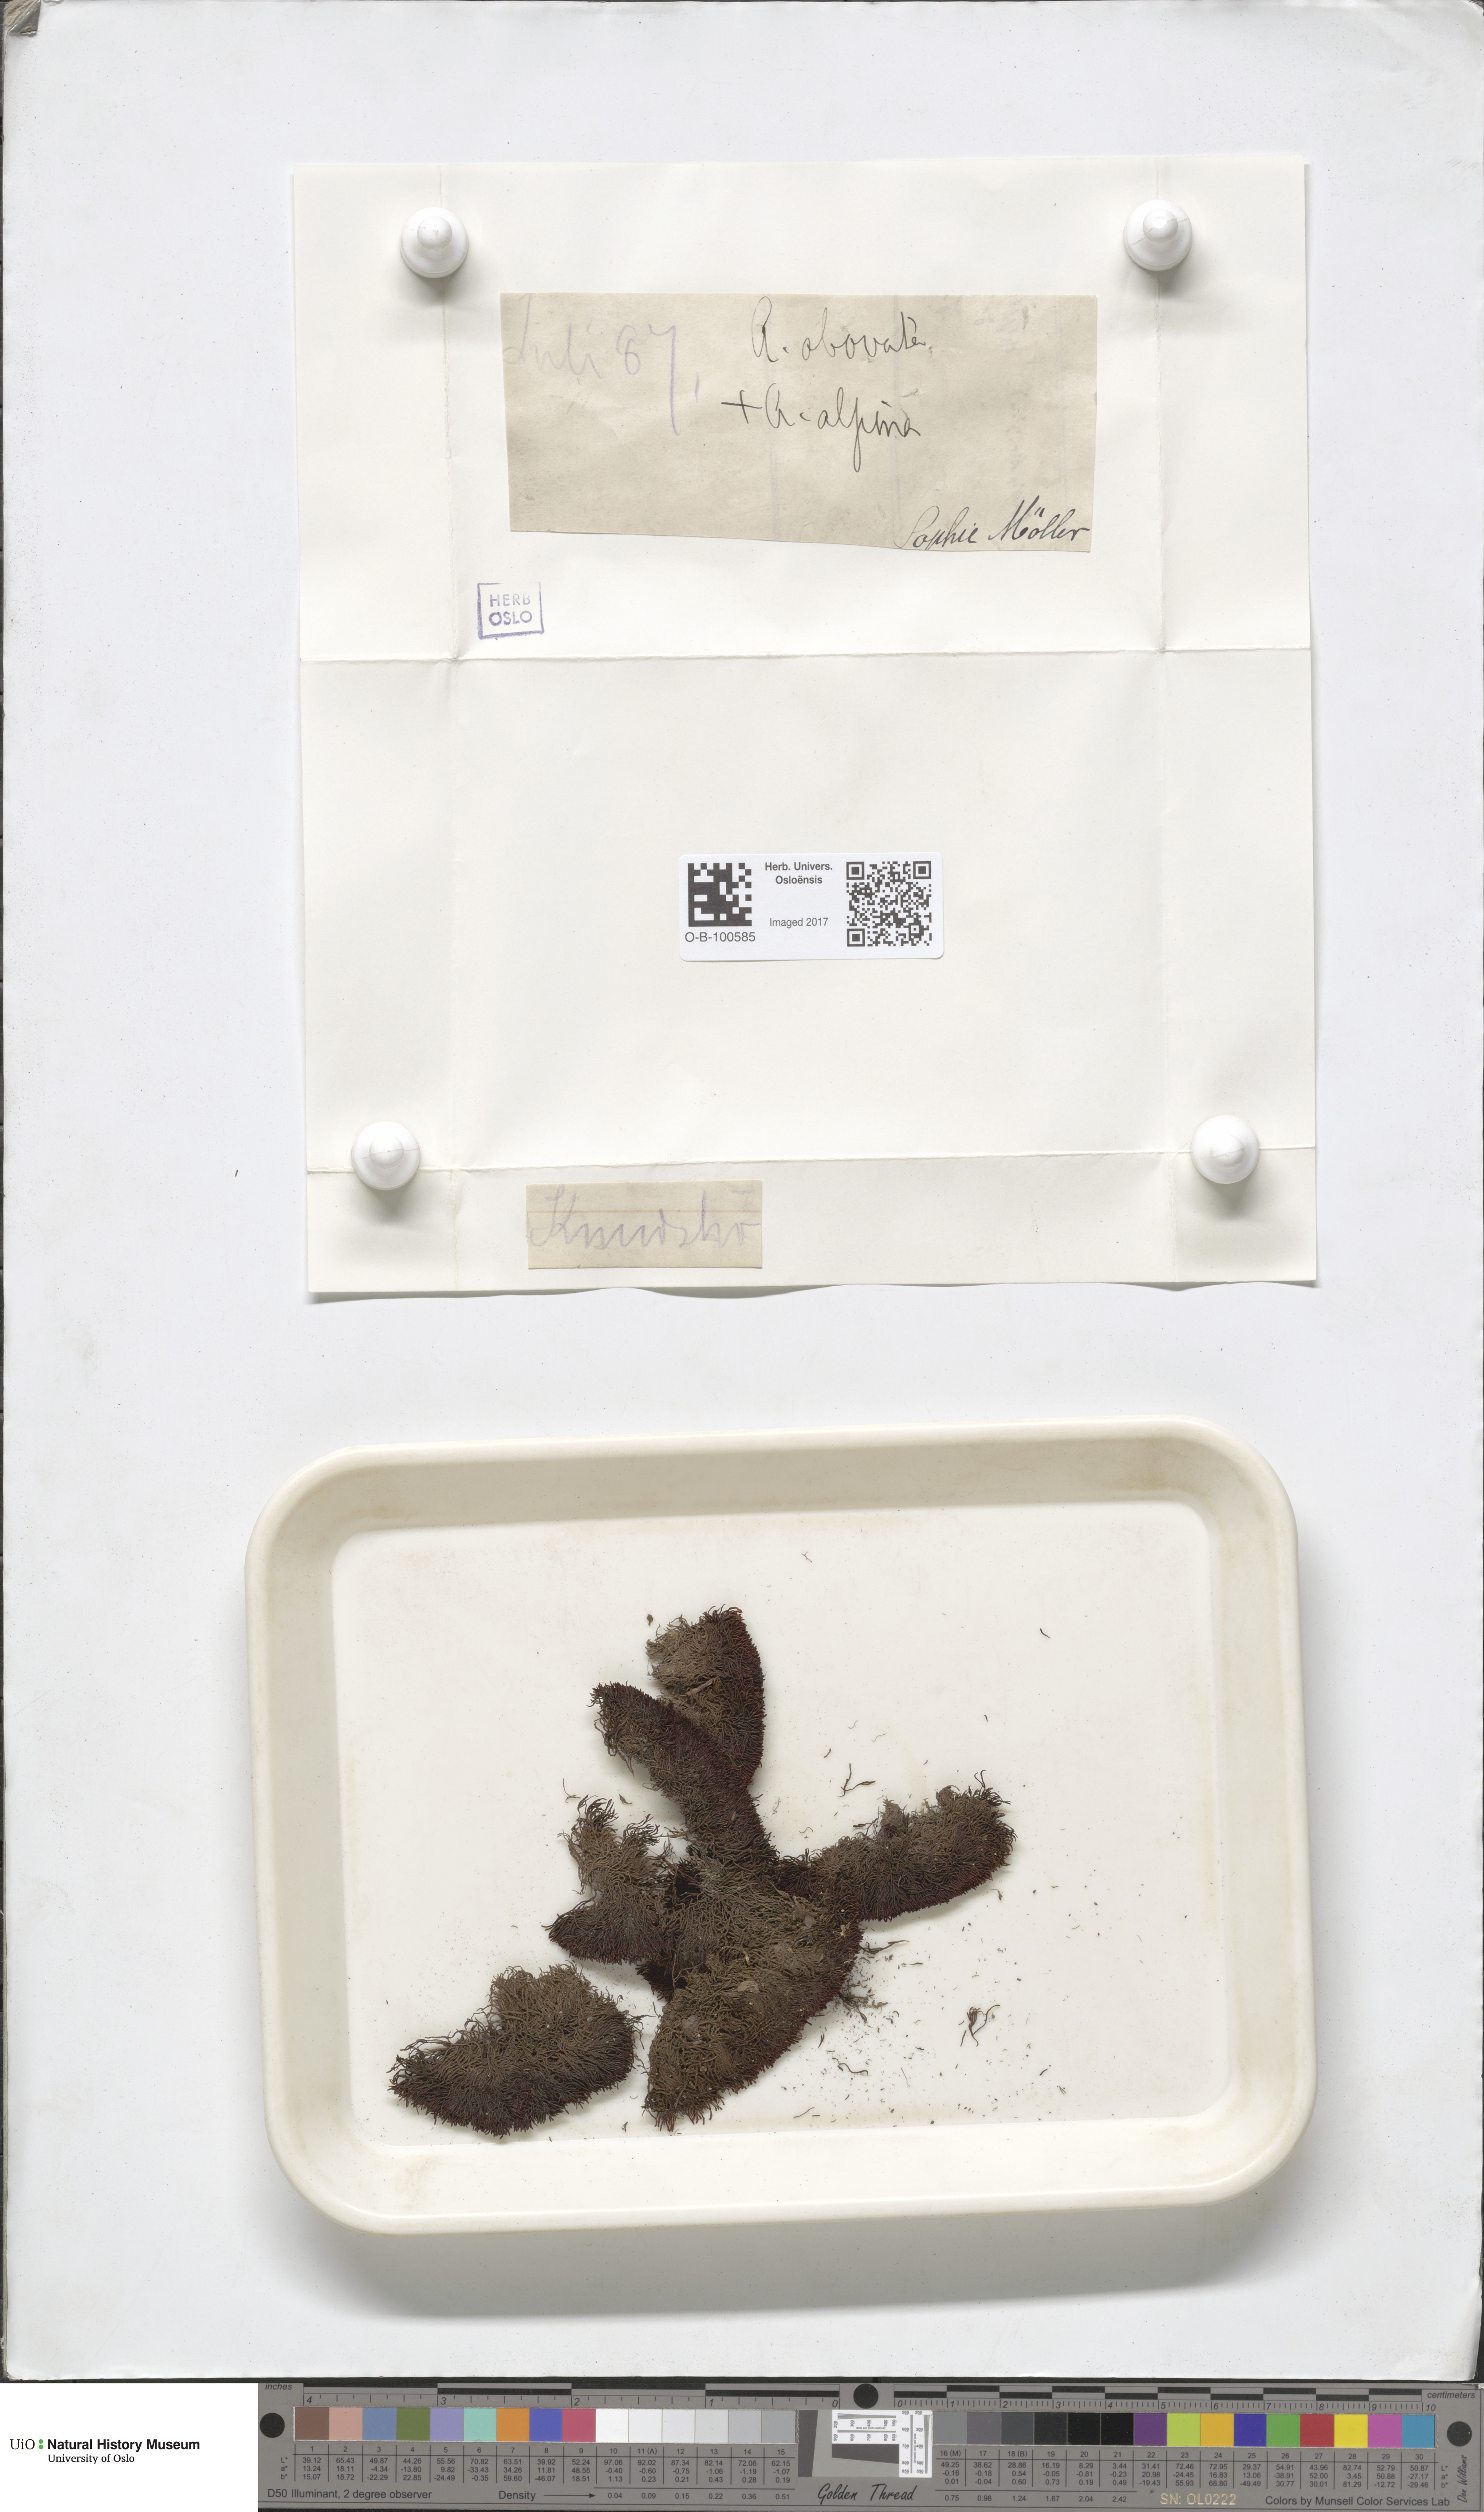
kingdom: Plantae
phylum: Bryophyta
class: Andreaeopsida
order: Andreaeales
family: Andreaeaceae
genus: Andreaea
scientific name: Andreaea alpina
